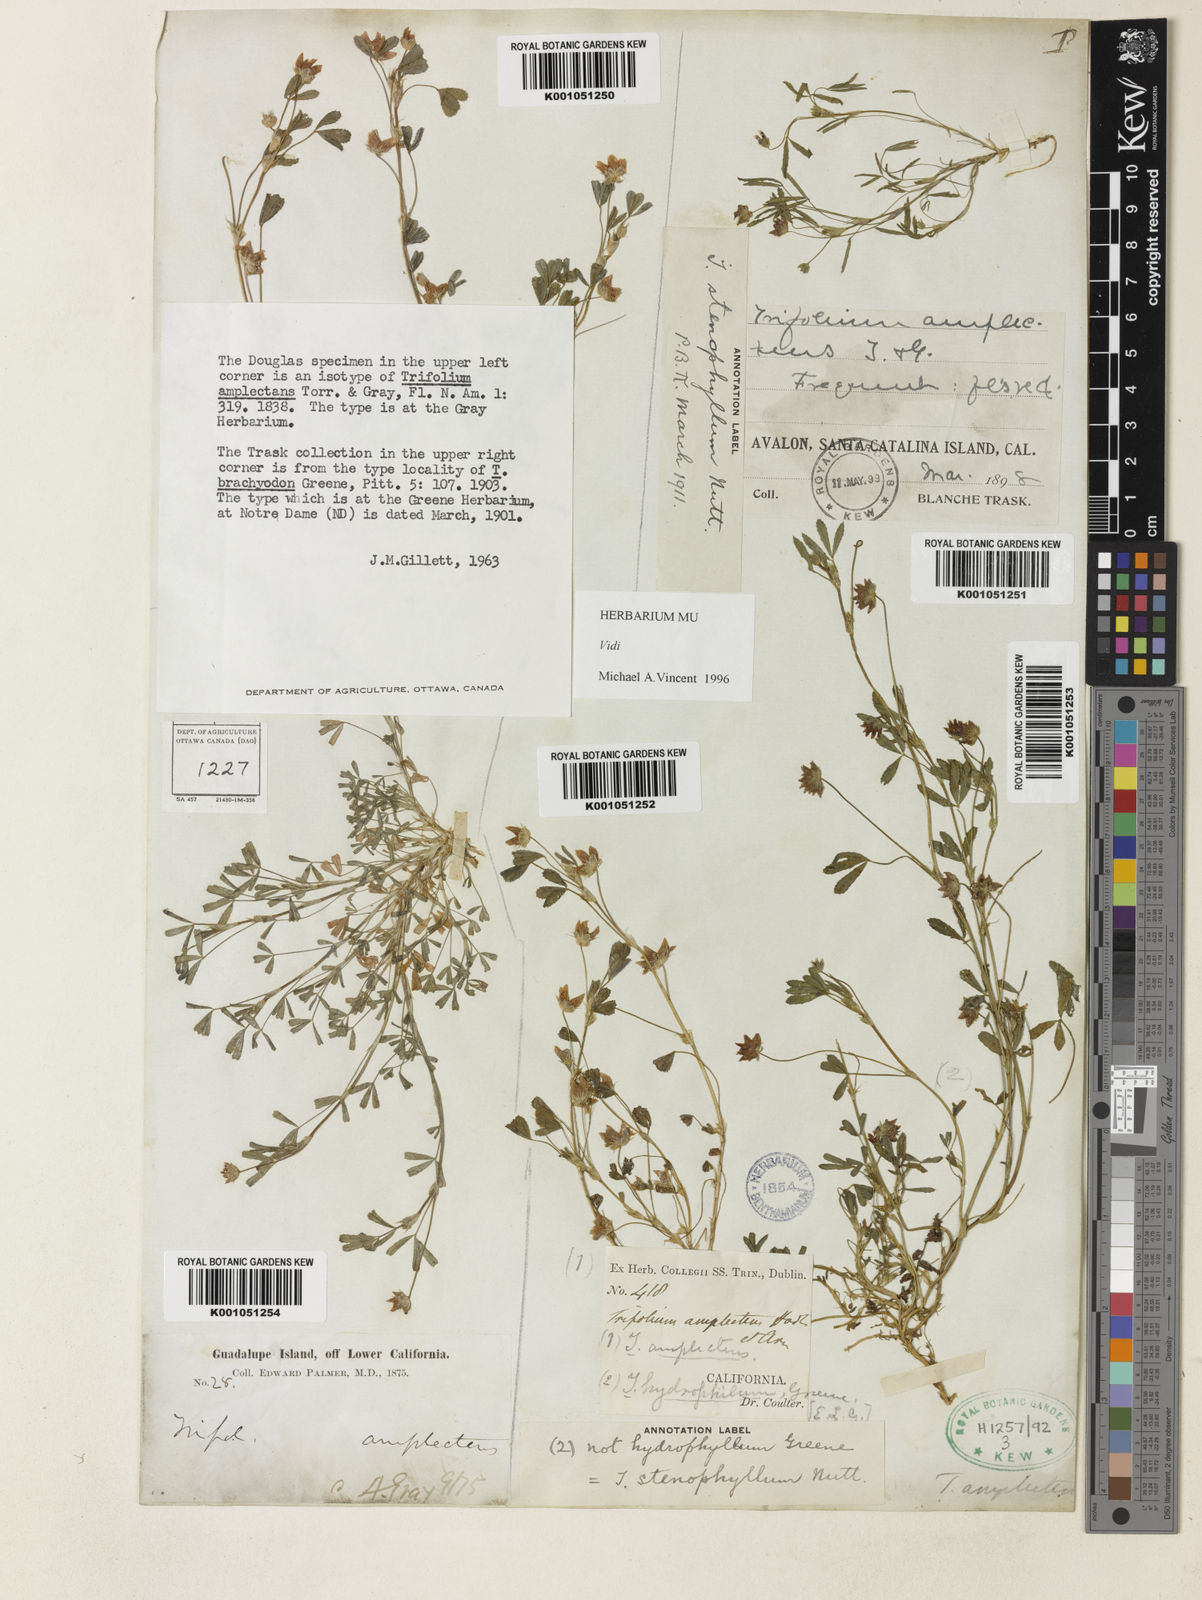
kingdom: Plantae
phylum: Tracheophyta
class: Magnoliopsida
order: Fabales
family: Fabaceae
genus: Trifolium
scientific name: Trifolium depauperatum
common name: Poverty clover
